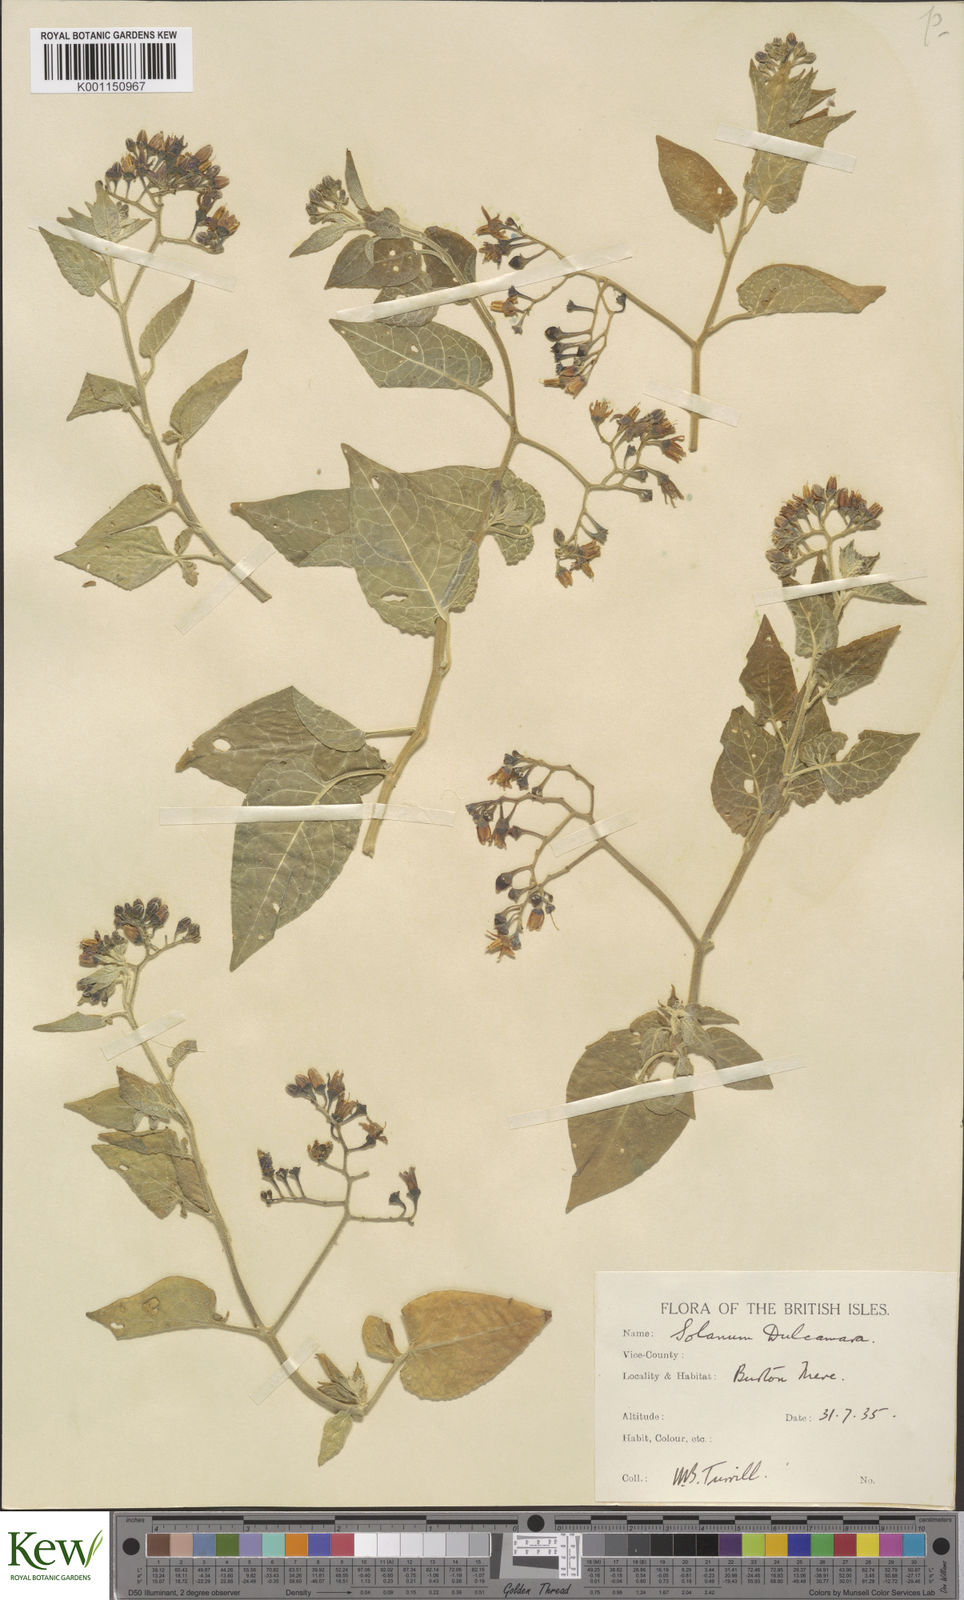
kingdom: Plantae
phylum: Tracheophyta
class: Magnoliopsida
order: Solanales
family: Solanaceae
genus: Solanum
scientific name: Solanum dulcamara
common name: Climbing nightshade
